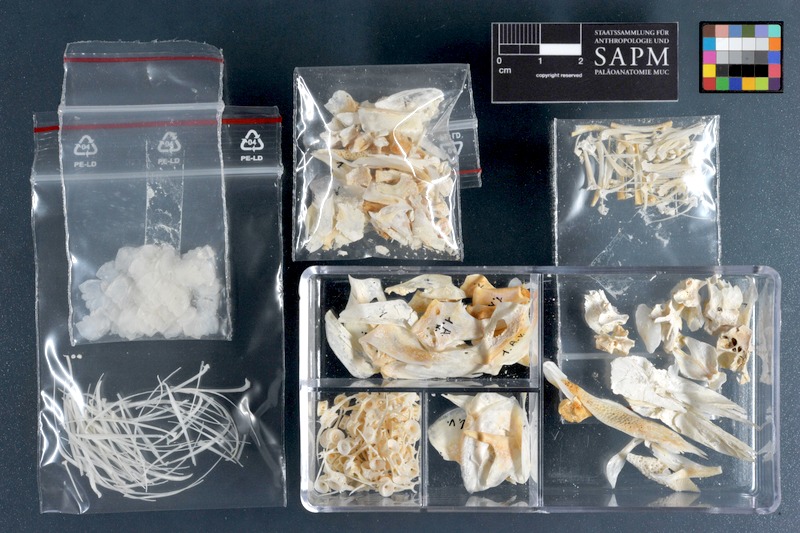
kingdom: Animalia
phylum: Chordata
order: Albuliformes
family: Albulidae
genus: Albula
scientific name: Albula vulpes
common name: Bonefish
